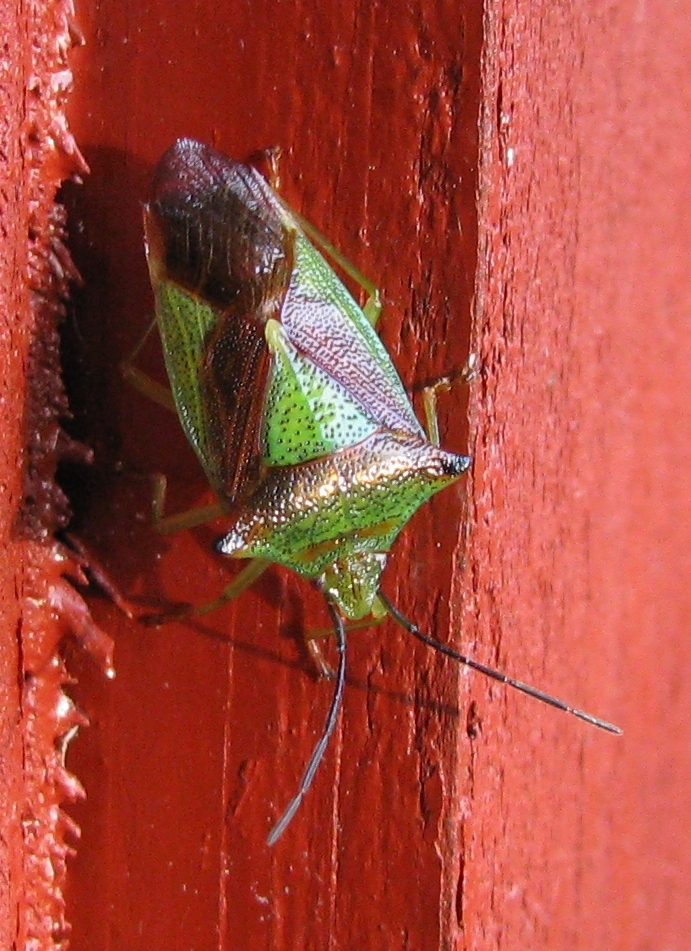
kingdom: Animalia
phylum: Arthropoda
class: Insecta
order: Hemiptera
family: Acanthosomatidae
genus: Acanthosoma
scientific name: Acanthosoma haemorrhoidale
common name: Hawthorn shieldbug
